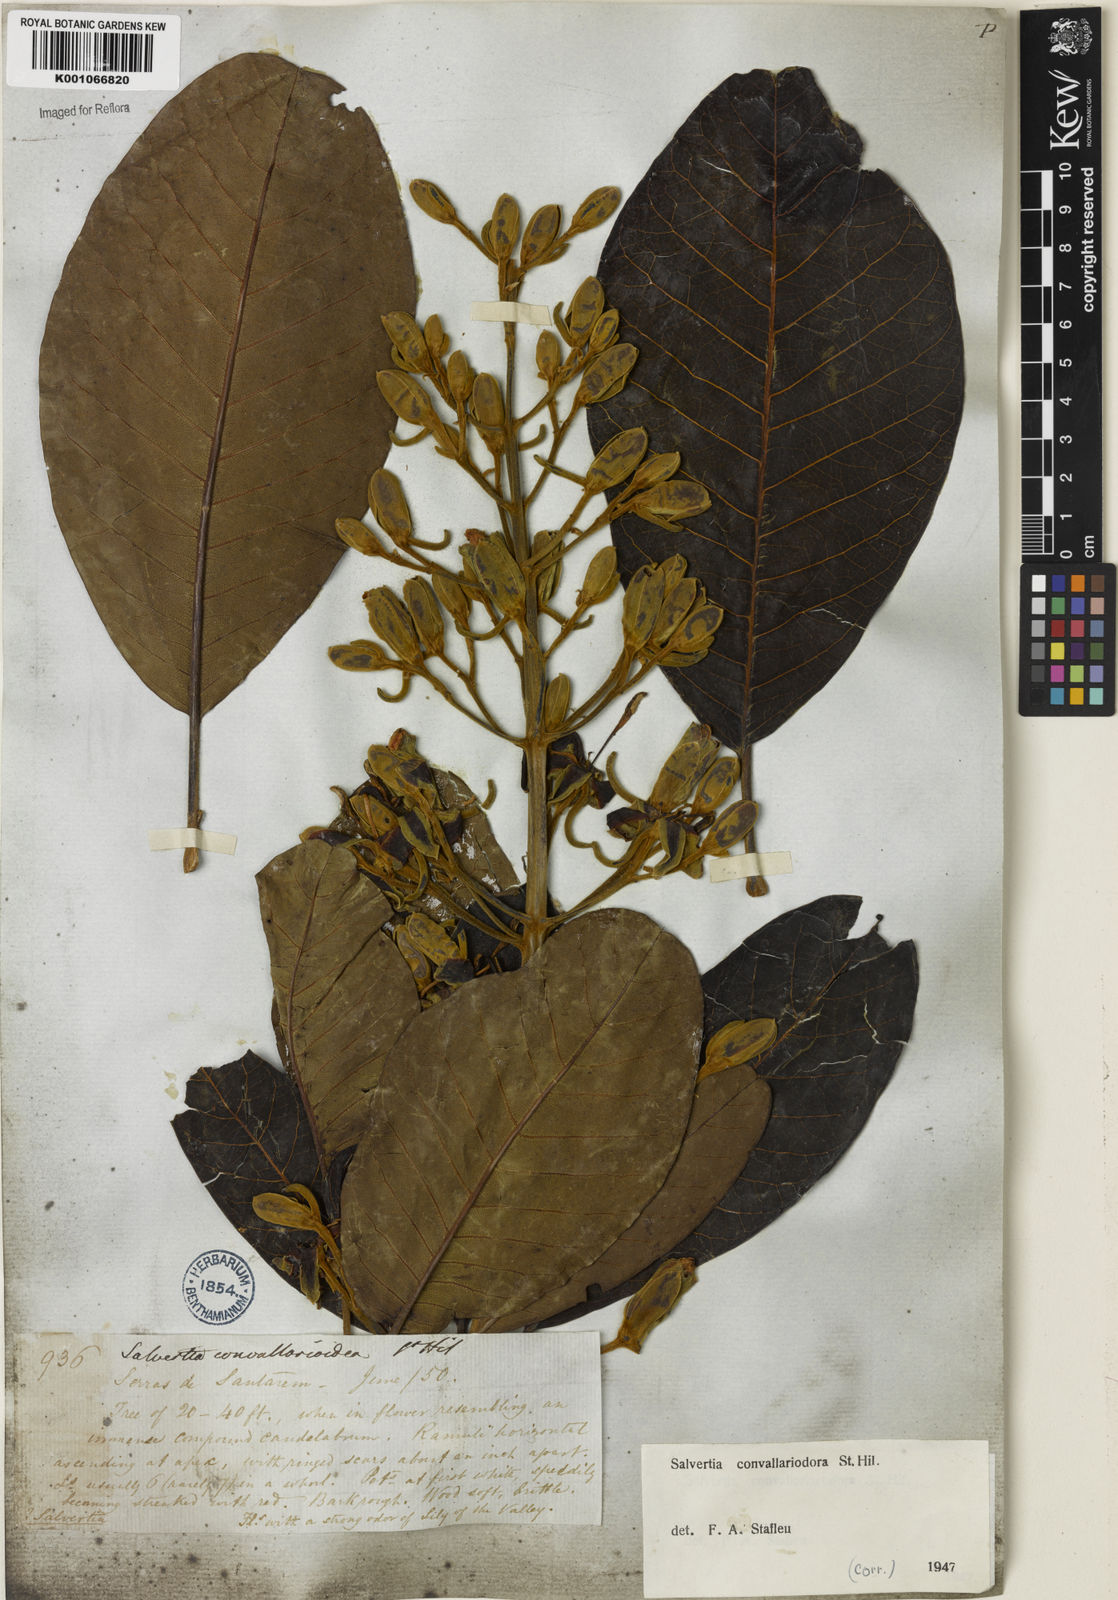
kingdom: Plantae
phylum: Tracheophyta
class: Magnoliopsida
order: Myrtales
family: Vochysiaceae
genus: Salvertia
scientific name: Salvertia convallariodora
